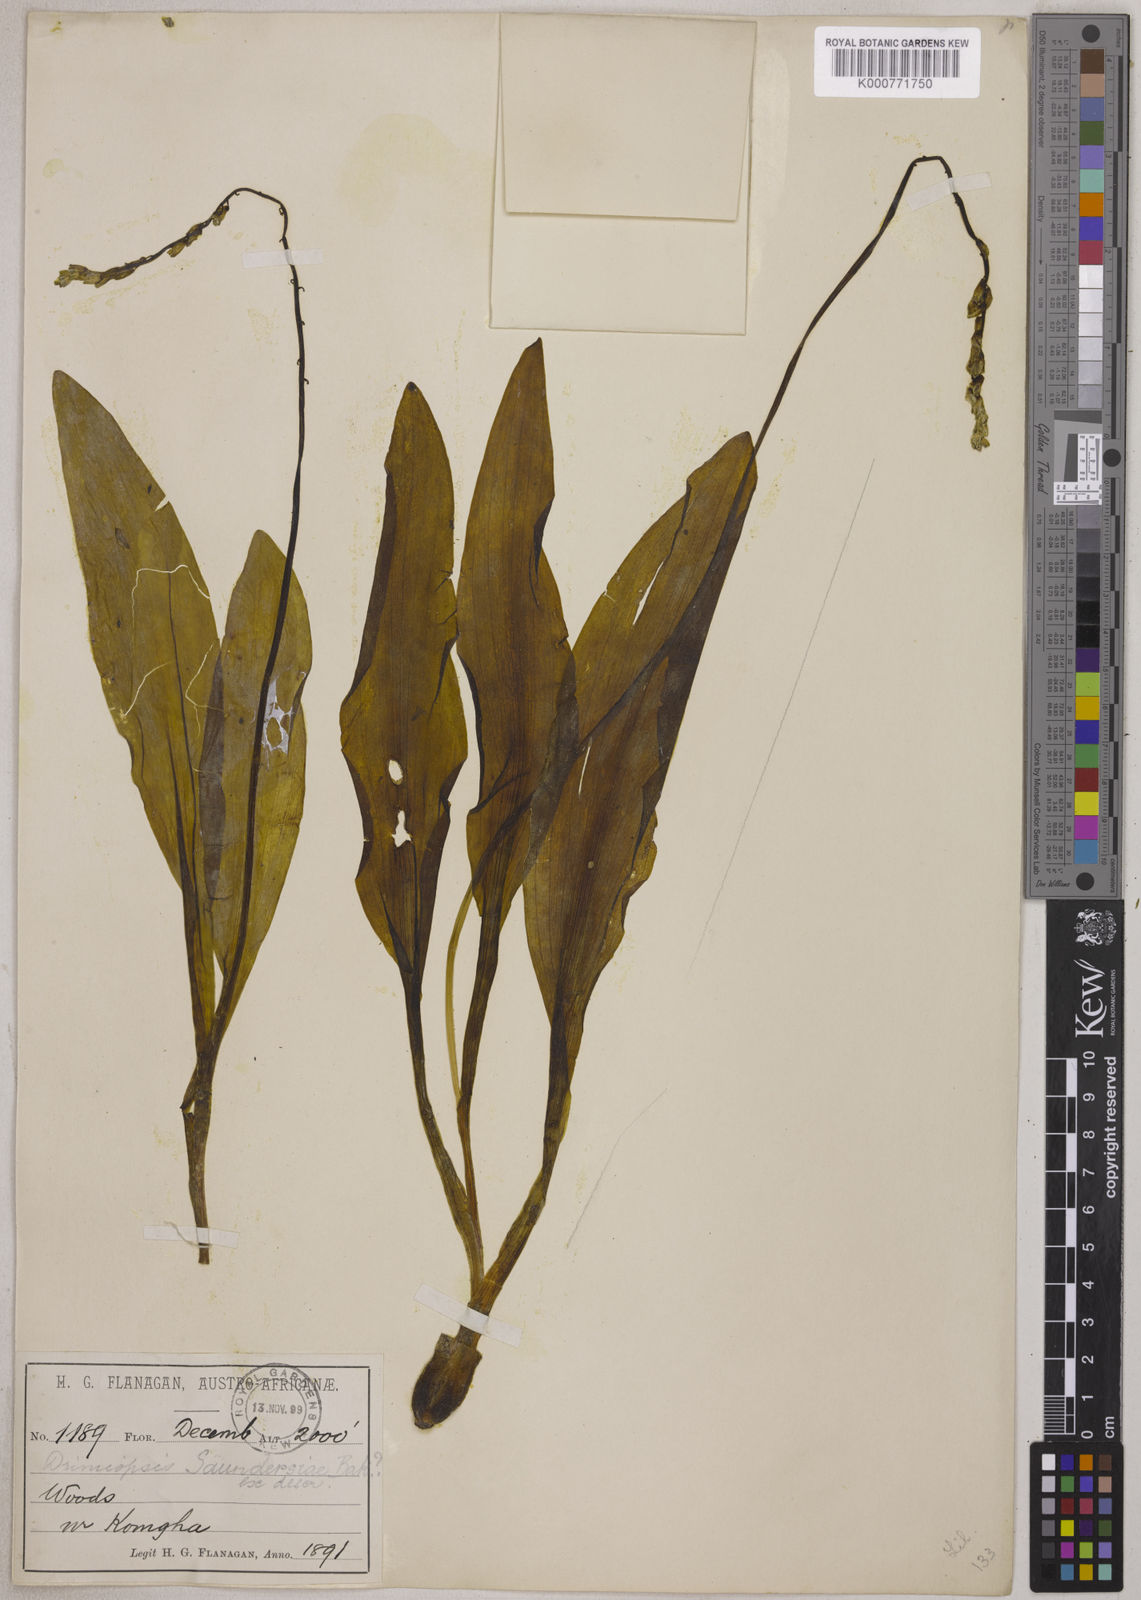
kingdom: Plantae
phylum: Tracheophyta
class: Liliopsida
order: Asparagales
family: Asparagaceae
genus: Resnova
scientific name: Resnova humifusa
